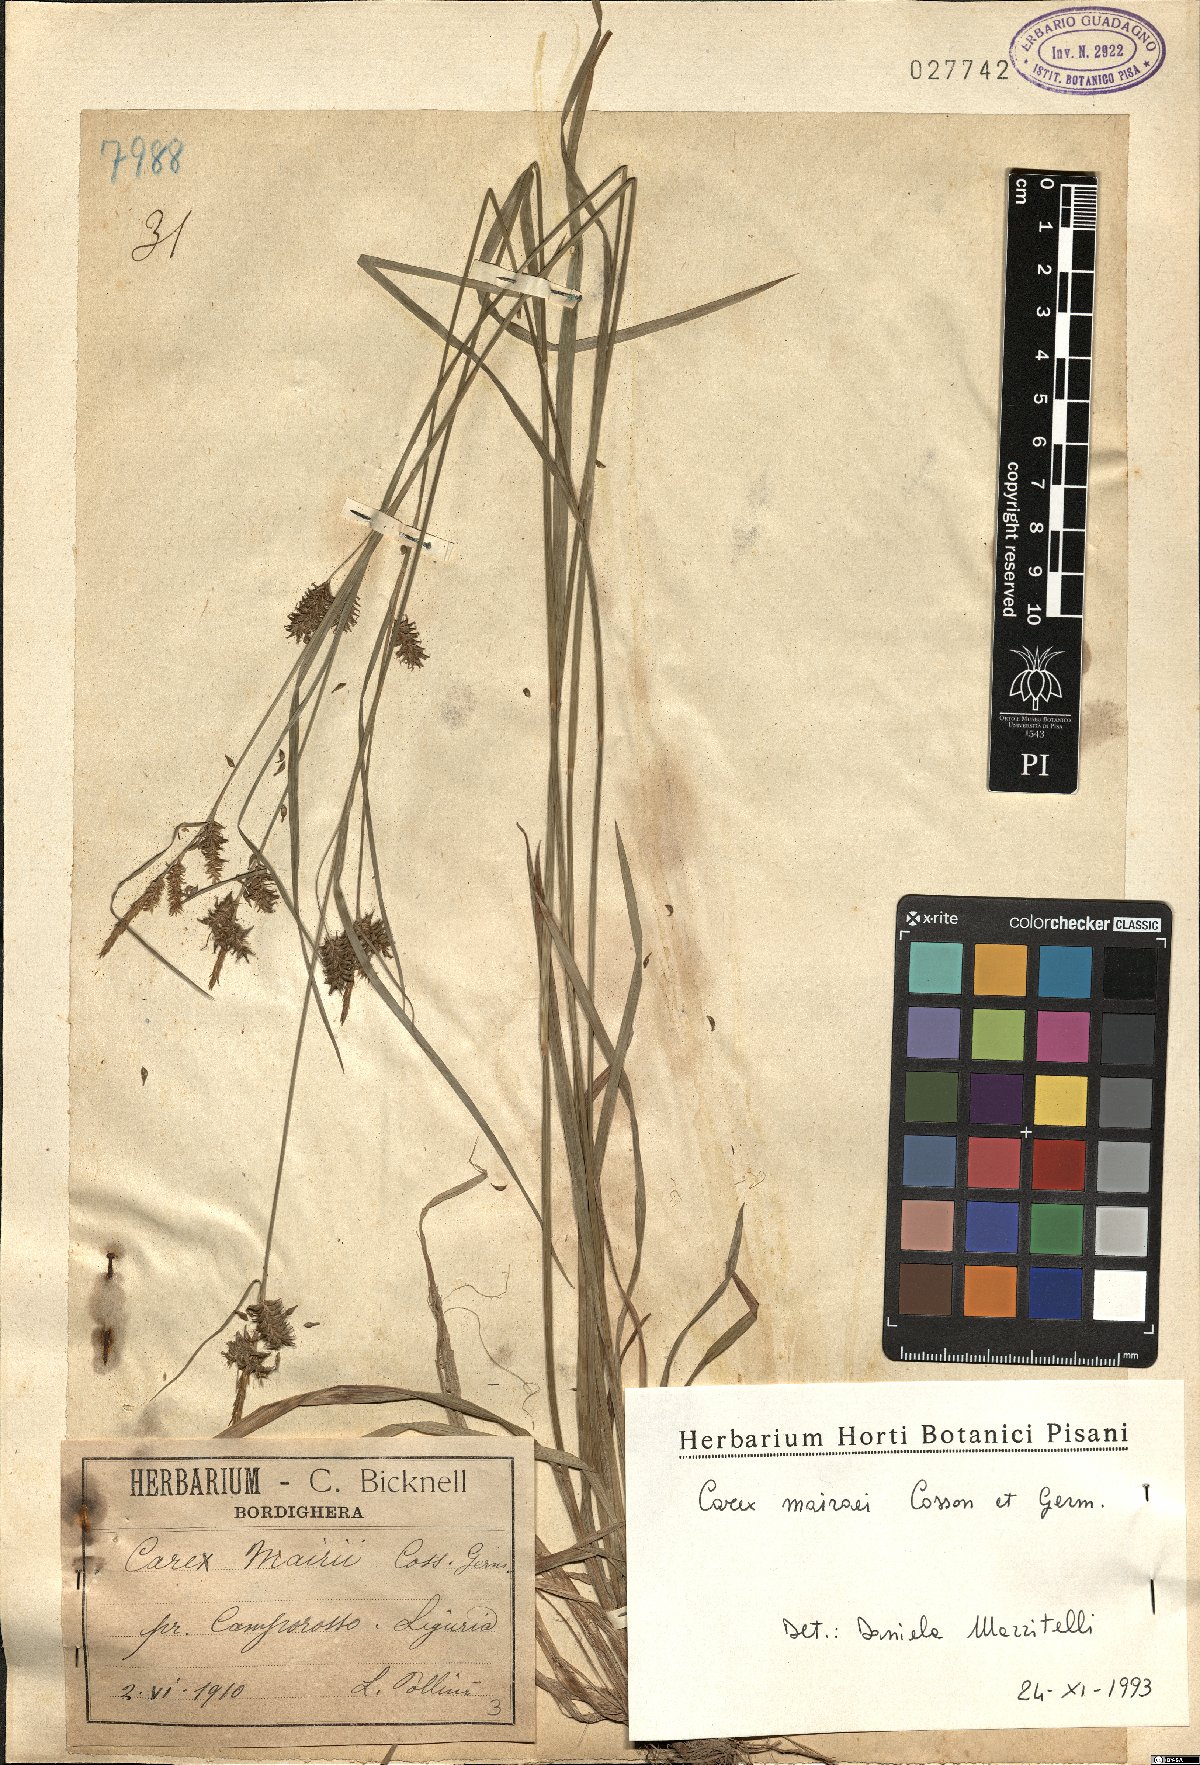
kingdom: Plantae
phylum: Tracheophyta
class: Liliopsida
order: Poales
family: Cyperaceae
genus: Carex
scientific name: Carex mairei
